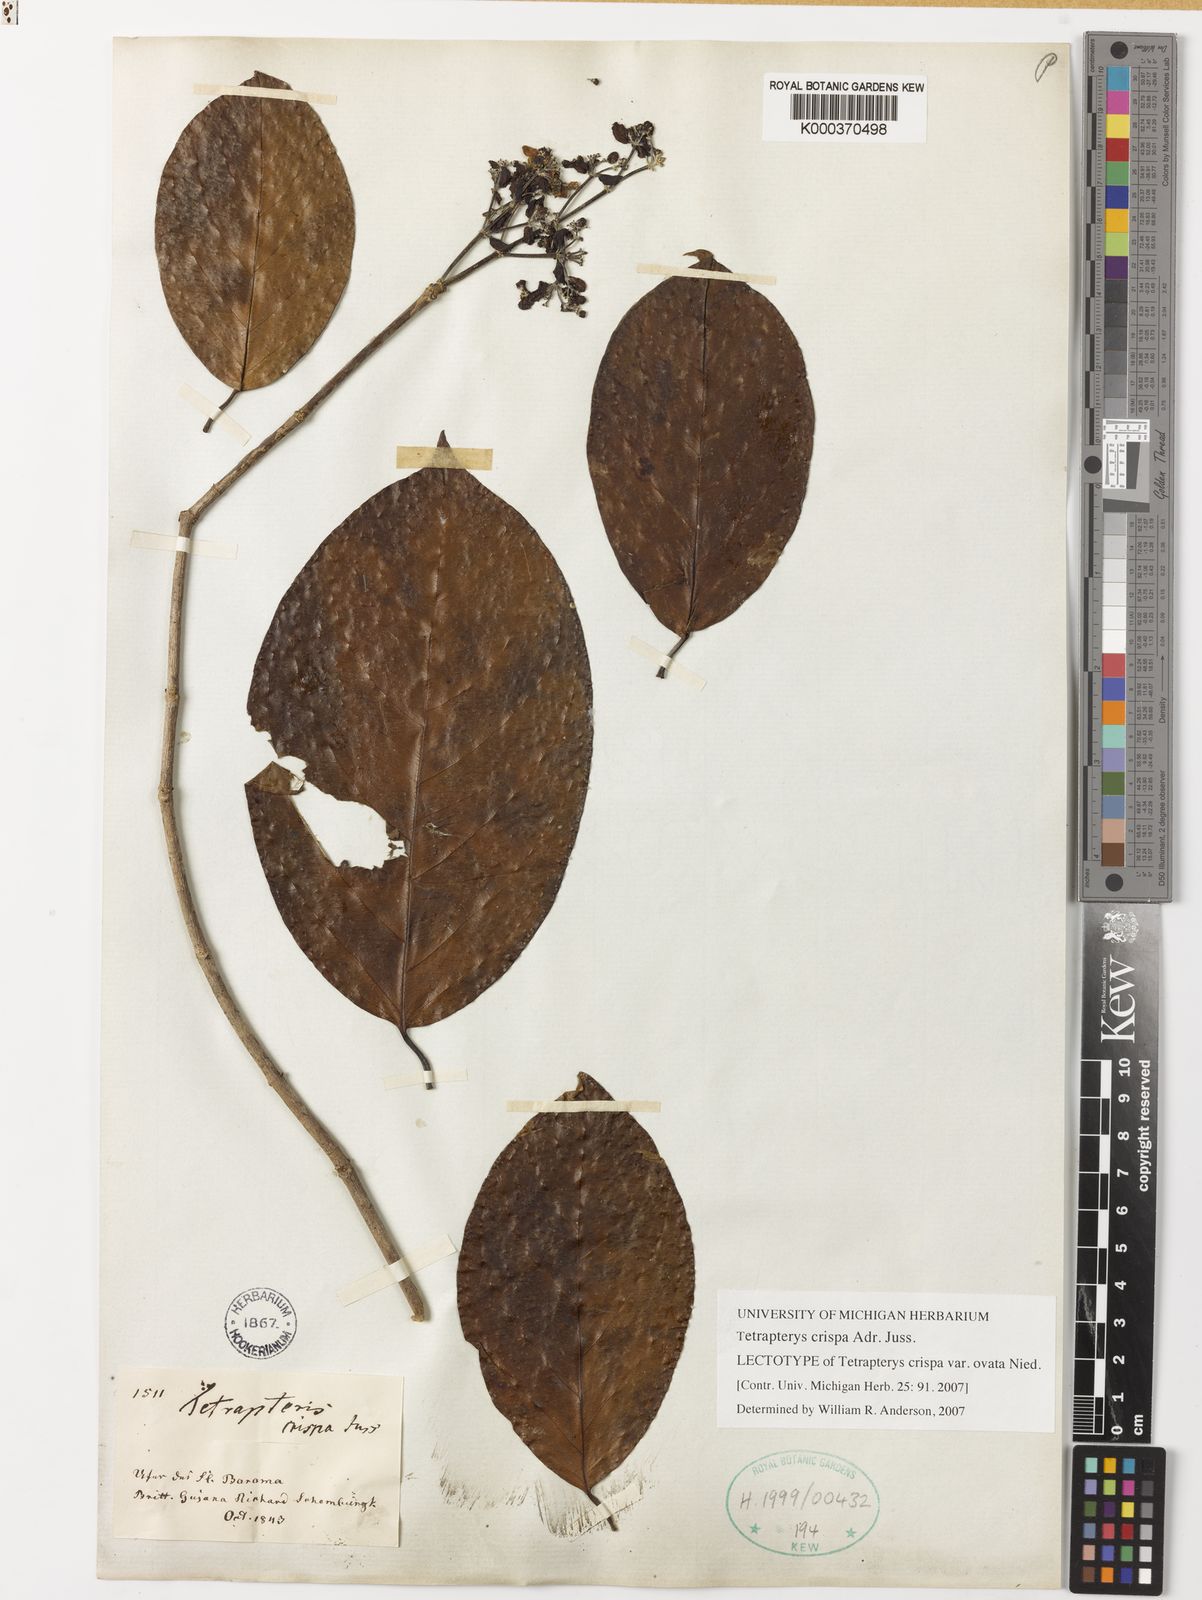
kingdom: Plantae
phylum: Tracheophyta
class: Magnoliopsida
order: Malpighiales
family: Malpighiaceae
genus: Tetrapterys
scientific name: Tetrapterys crispa
